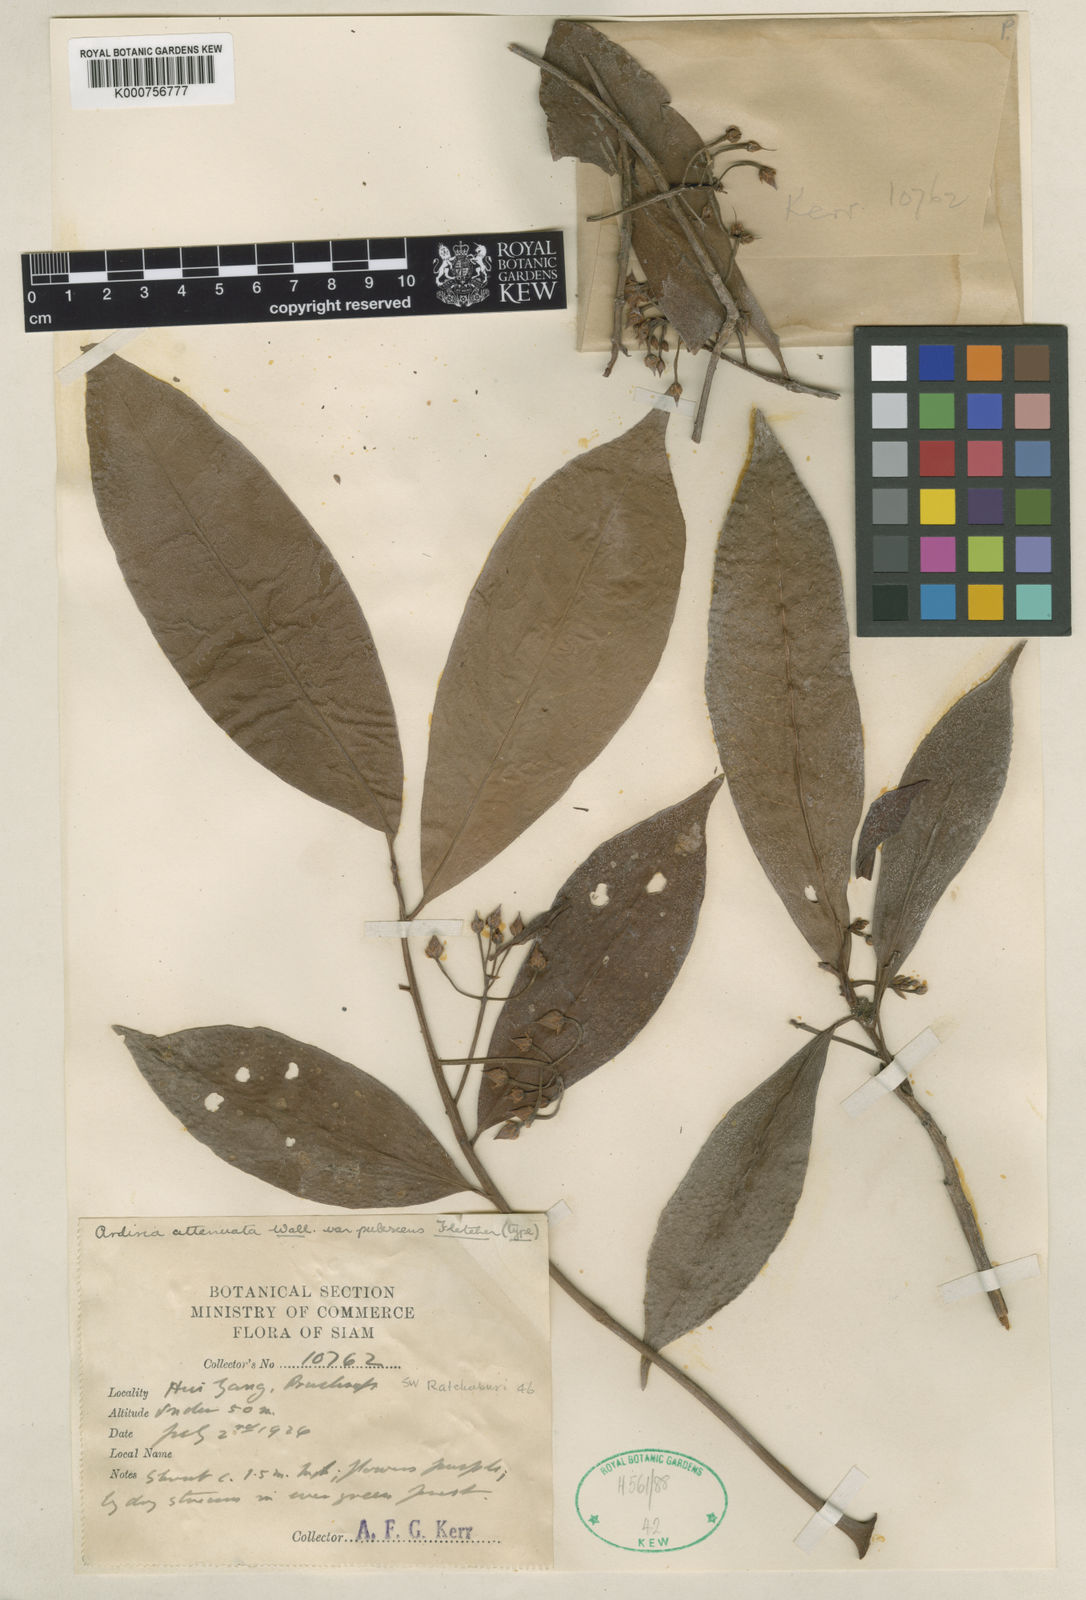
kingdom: Plantae
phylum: Tracheophyta
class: Magnoliopsida
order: Ericales
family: Primulaceae
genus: Ardisia
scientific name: Ardisia
